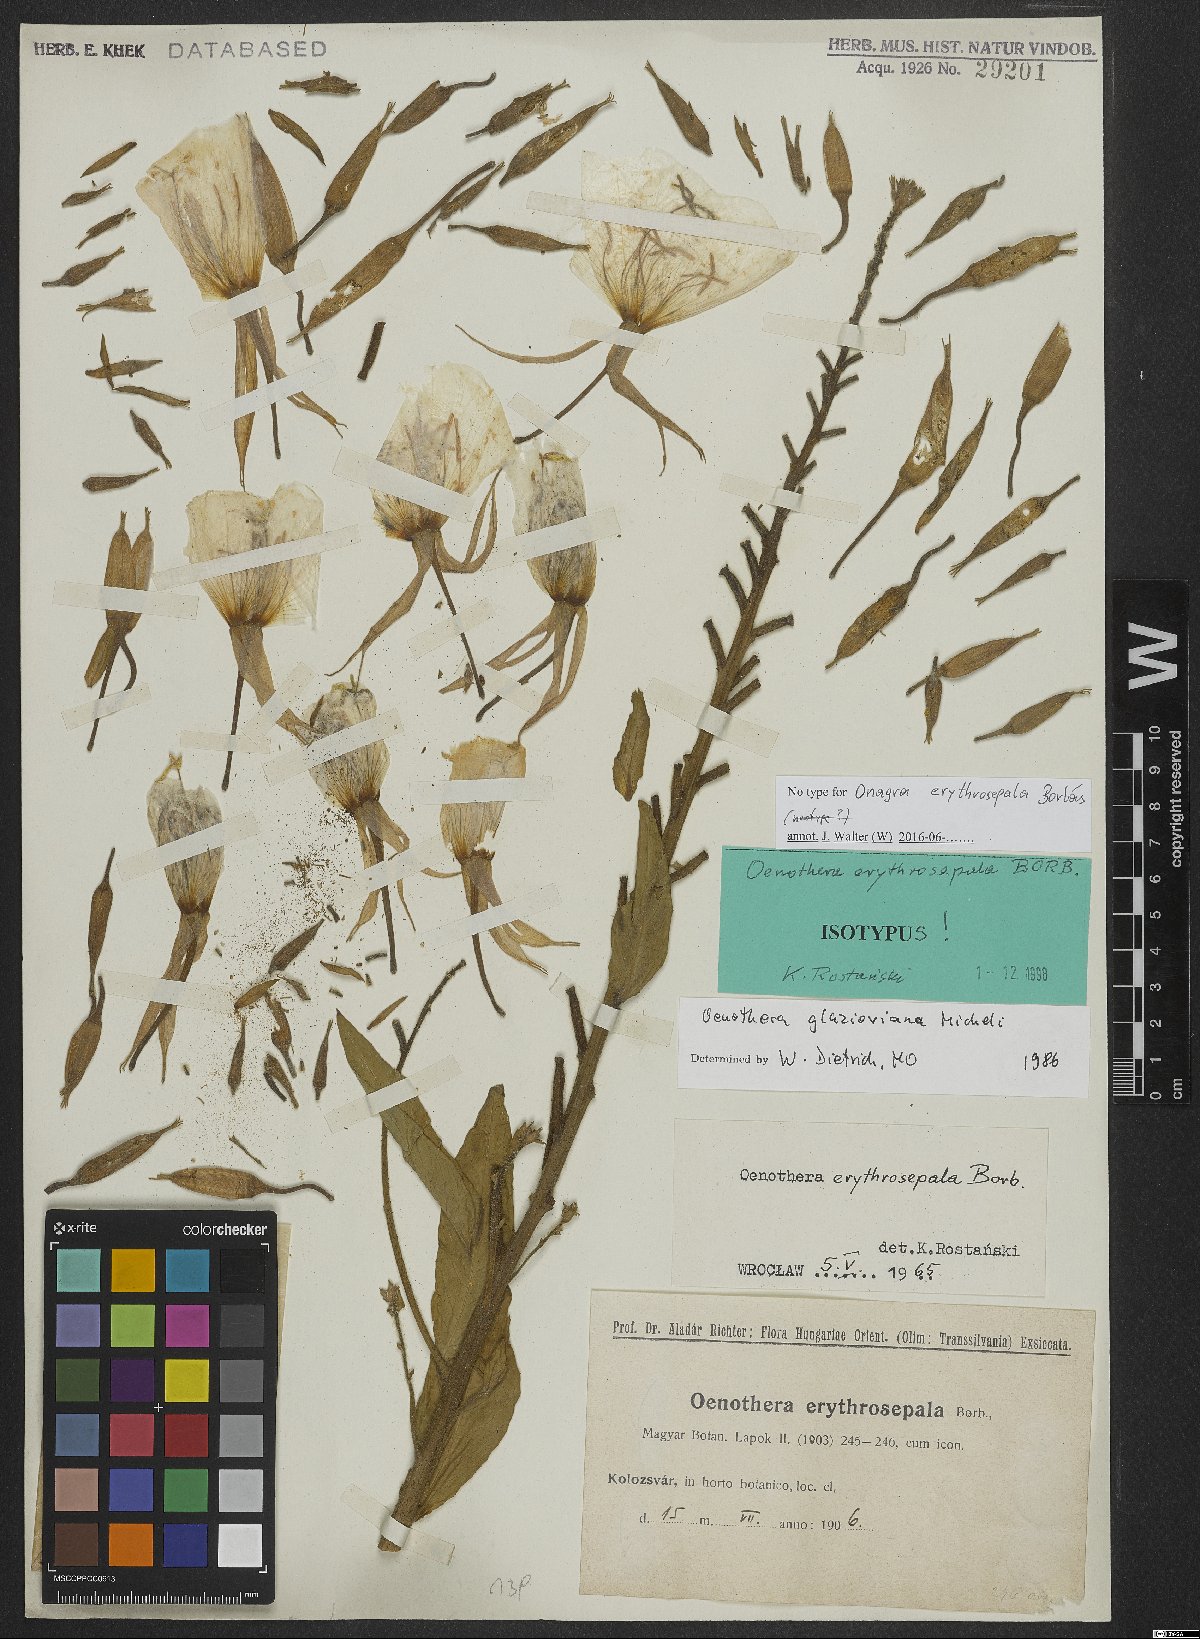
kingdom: Plantae
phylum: Tracheophyta
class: Magnoliopsida
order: Myrtales
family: Onagraceae
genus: Oenothera
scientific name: Oenothera glazioviana
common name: Large-flowered evening-primrose
